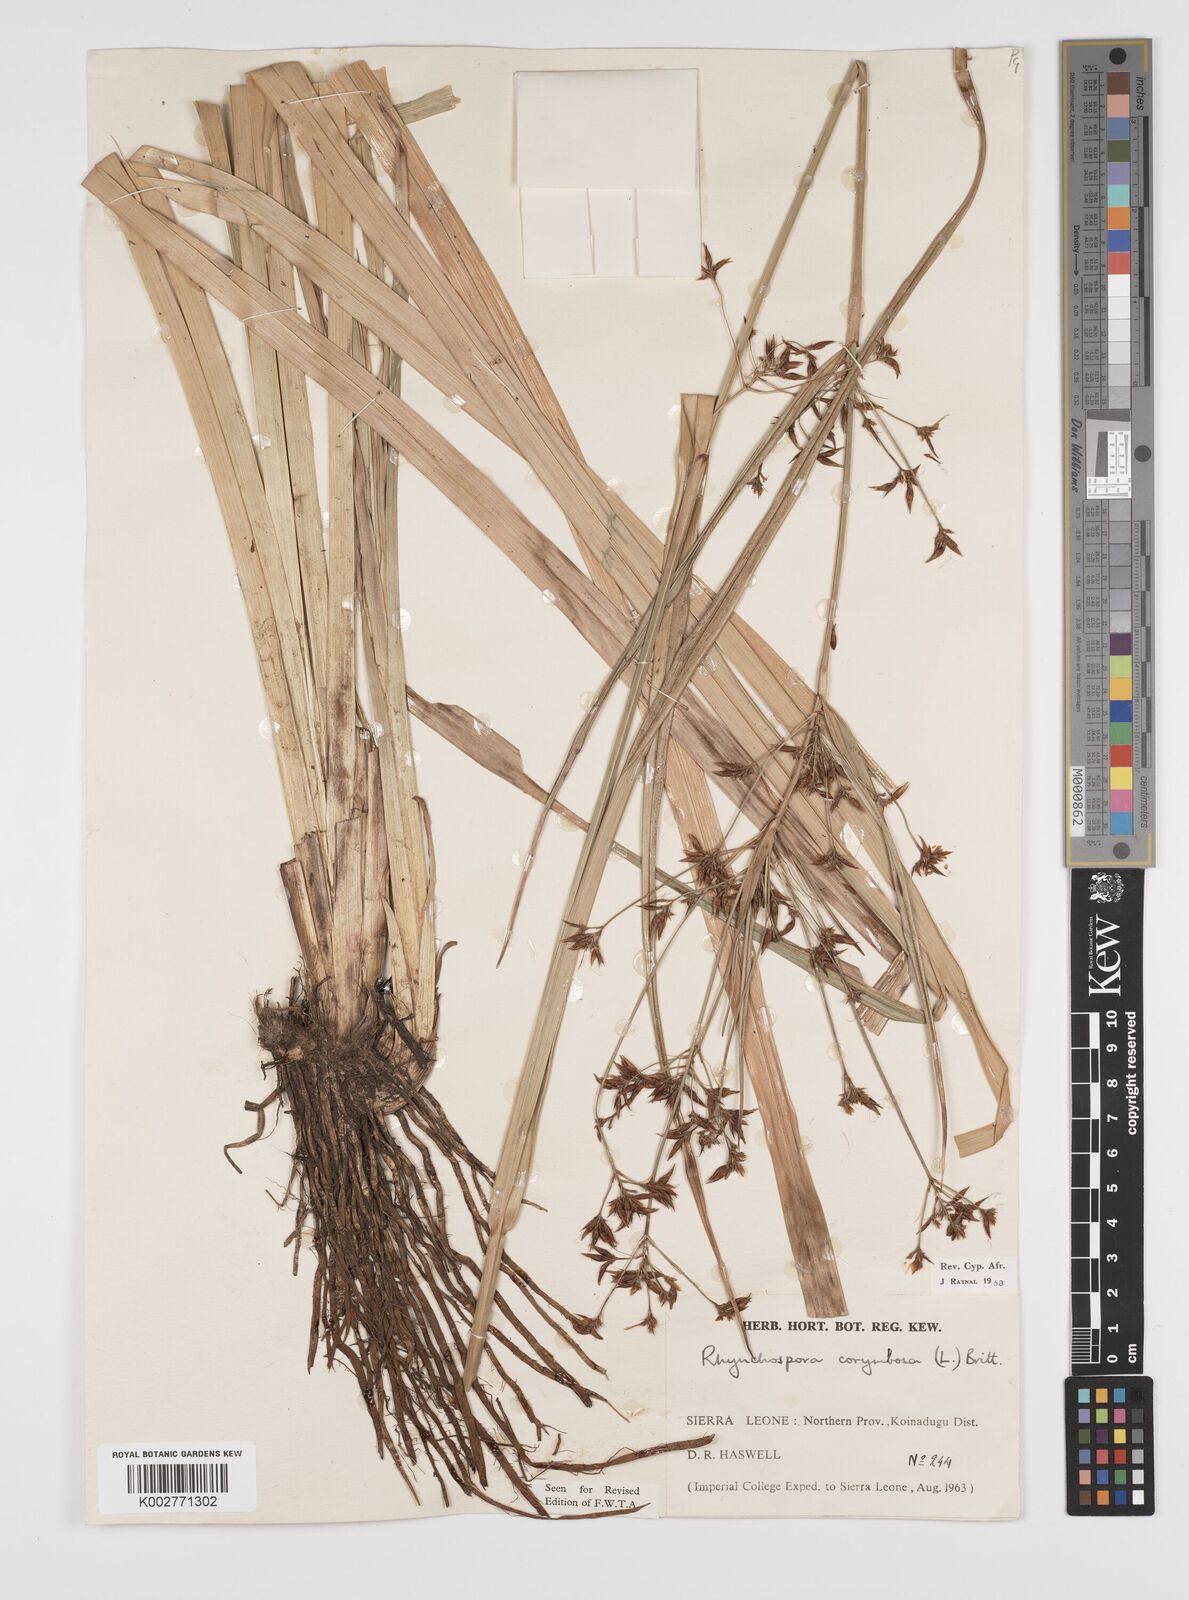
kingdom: Plantae
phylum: Tracheophyta
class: Liliopsida
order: Poales
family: Cyperaceae
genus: Rhynchospora
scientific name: Rhynchospora corymbosa
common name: Golden beak sedge
